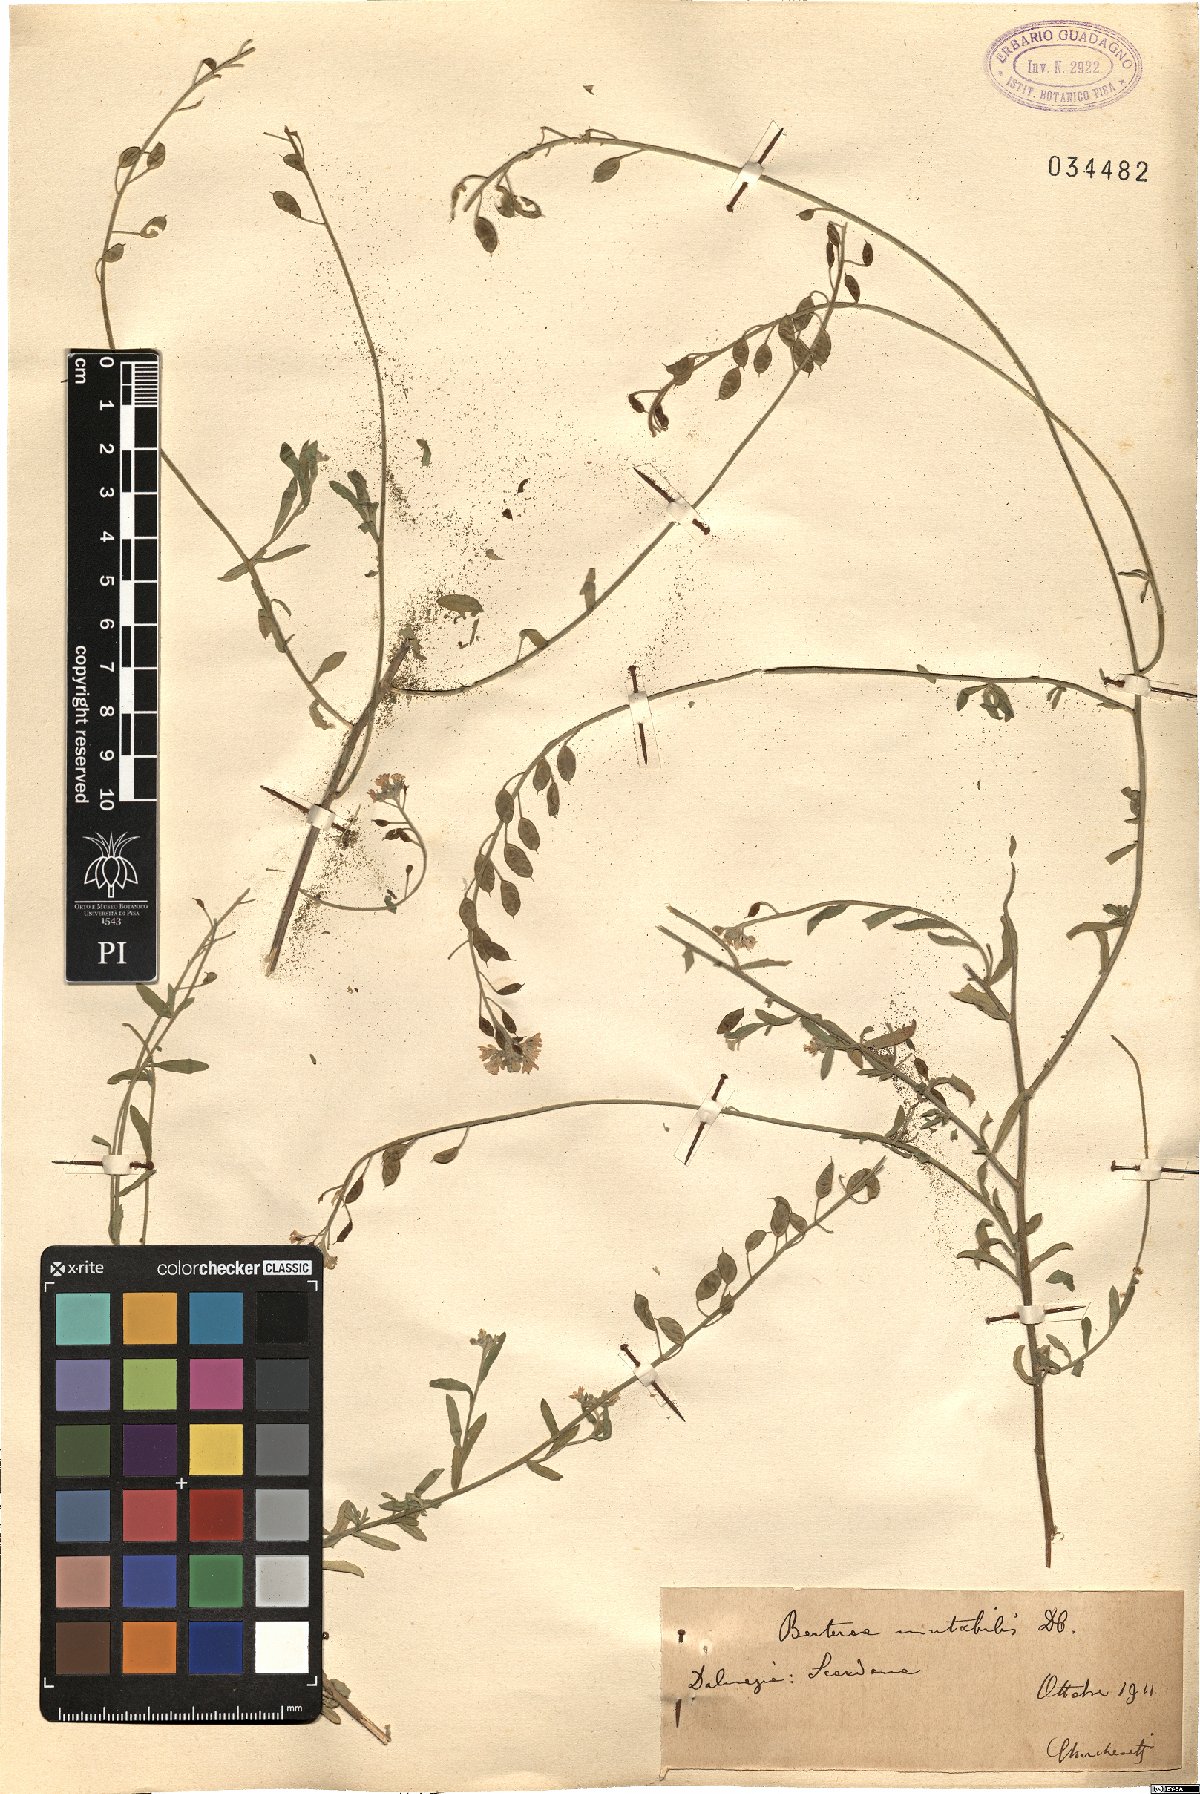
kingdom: Plantae
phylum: Tracheophyta
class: Magnoliopsida
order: Brassicales
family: Brassicaceae
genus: Berteroa
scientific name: Berteroa mutabilis
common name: Roadside false madwort
